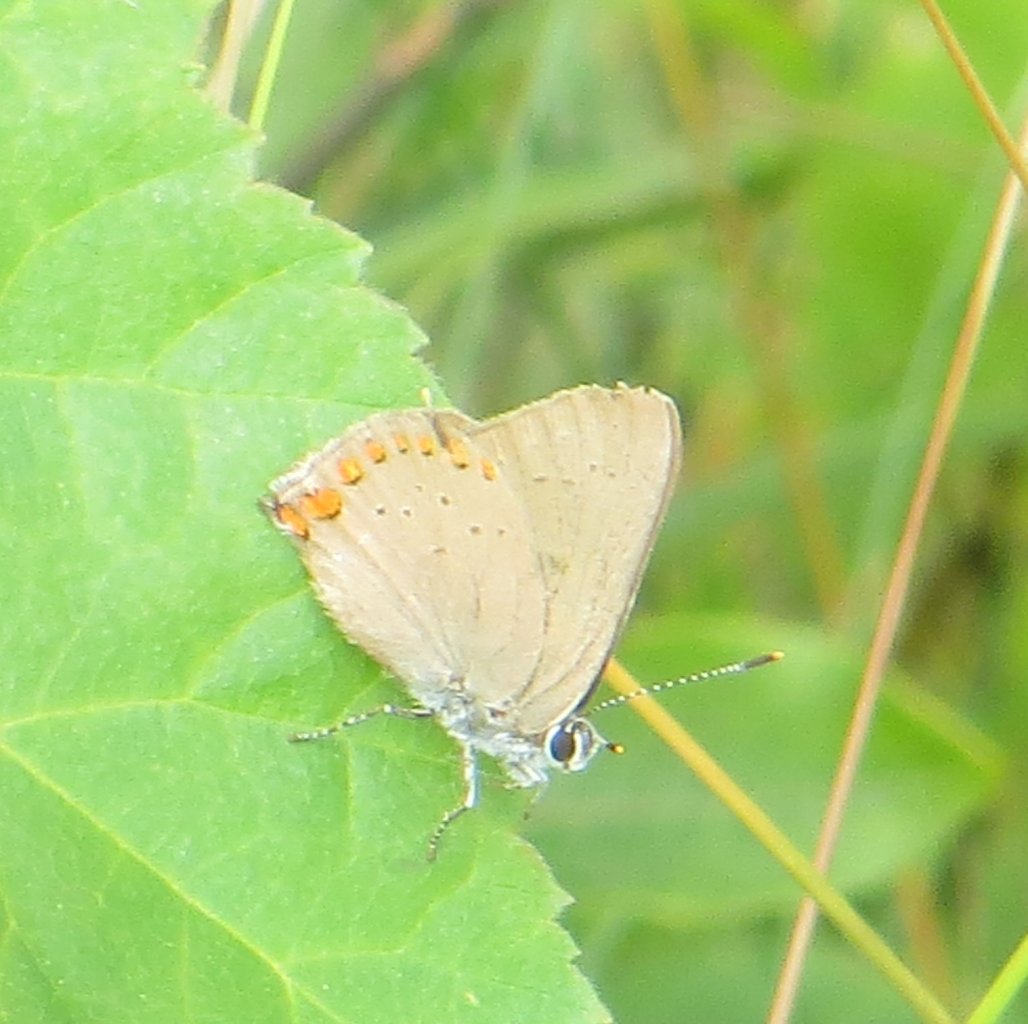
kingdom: Animalia
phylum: Arthropoda
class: Insecta
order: Lepidoptera
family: Lycaenidae
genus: Harkenclenus
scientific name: Harkenclenus titus
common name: Coral Hairstreak
